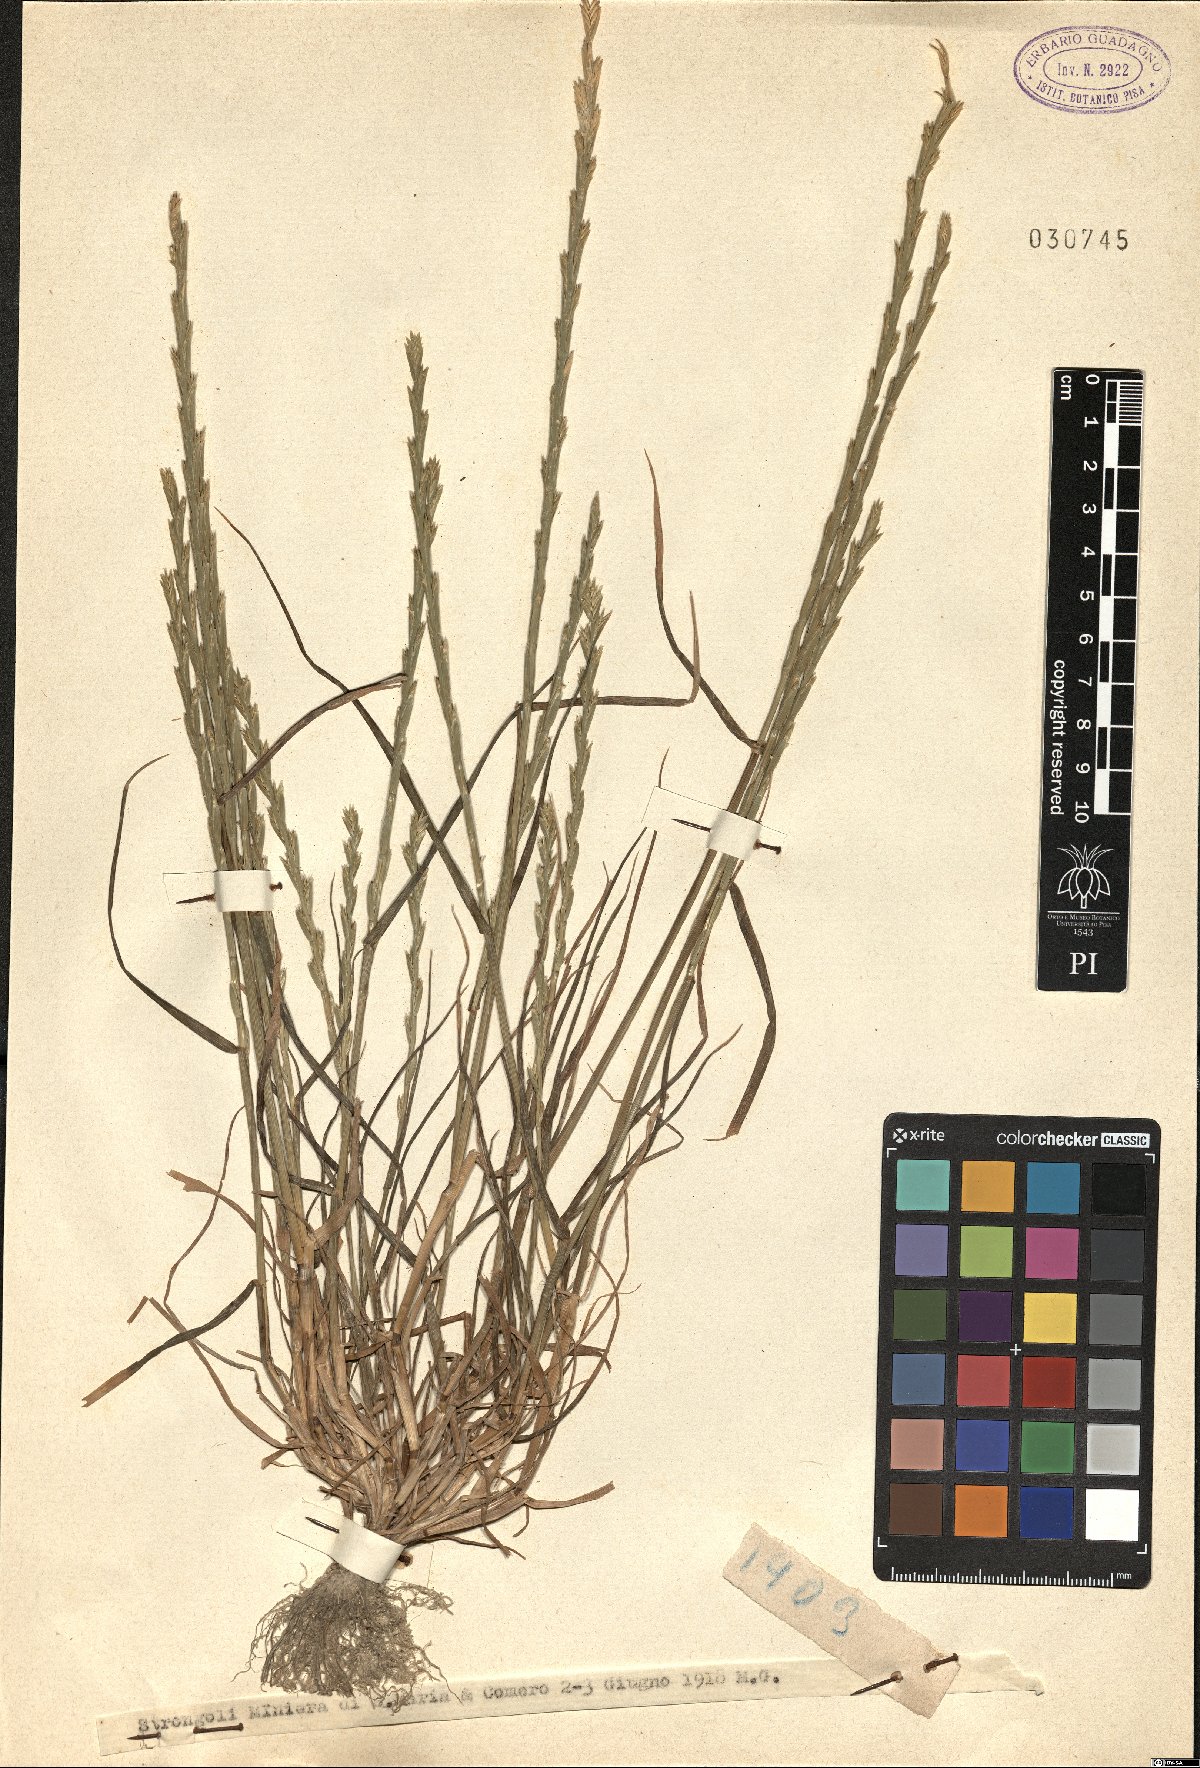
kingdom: Plantae
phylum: Tracheophyta
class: Liliopsida
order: Poales
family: Poaceae
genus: Lolium
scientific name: Lolium
